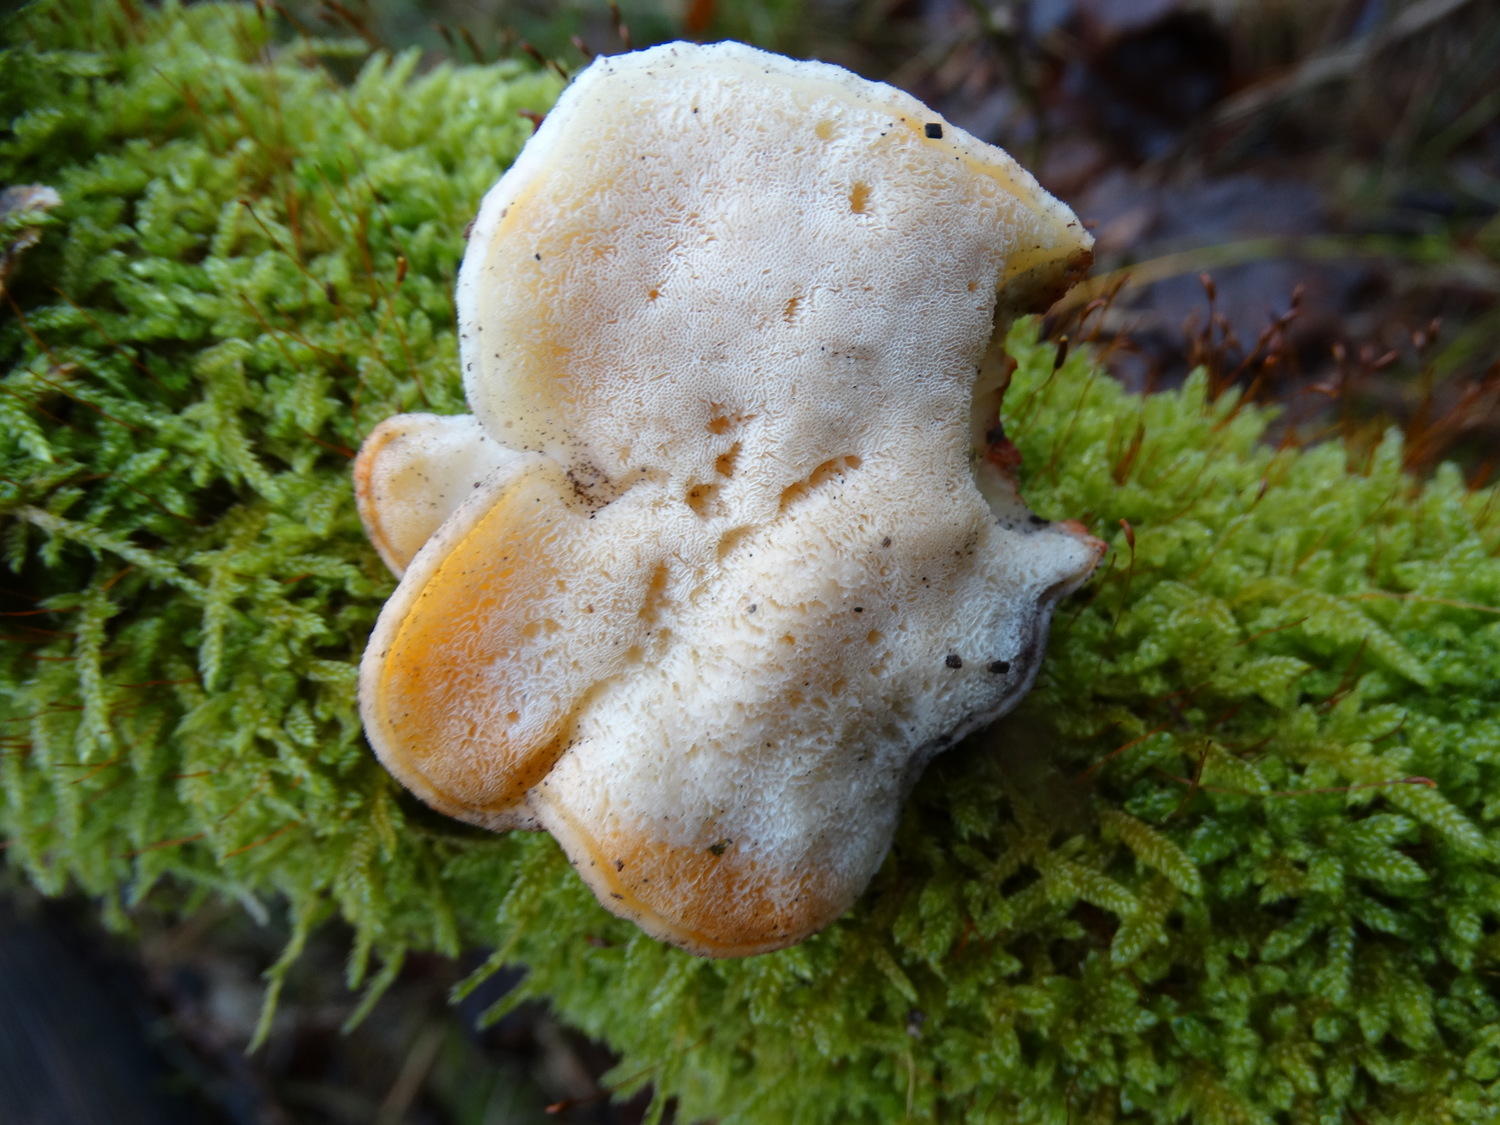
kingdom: Fungi
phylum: Basidiomycota
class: Agaricomycetes
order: Polyporales
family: Incrustoporiaceae
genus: Tyromyces
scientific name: Tyromyces lacteus
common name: mælkehvid kødporesvamp
